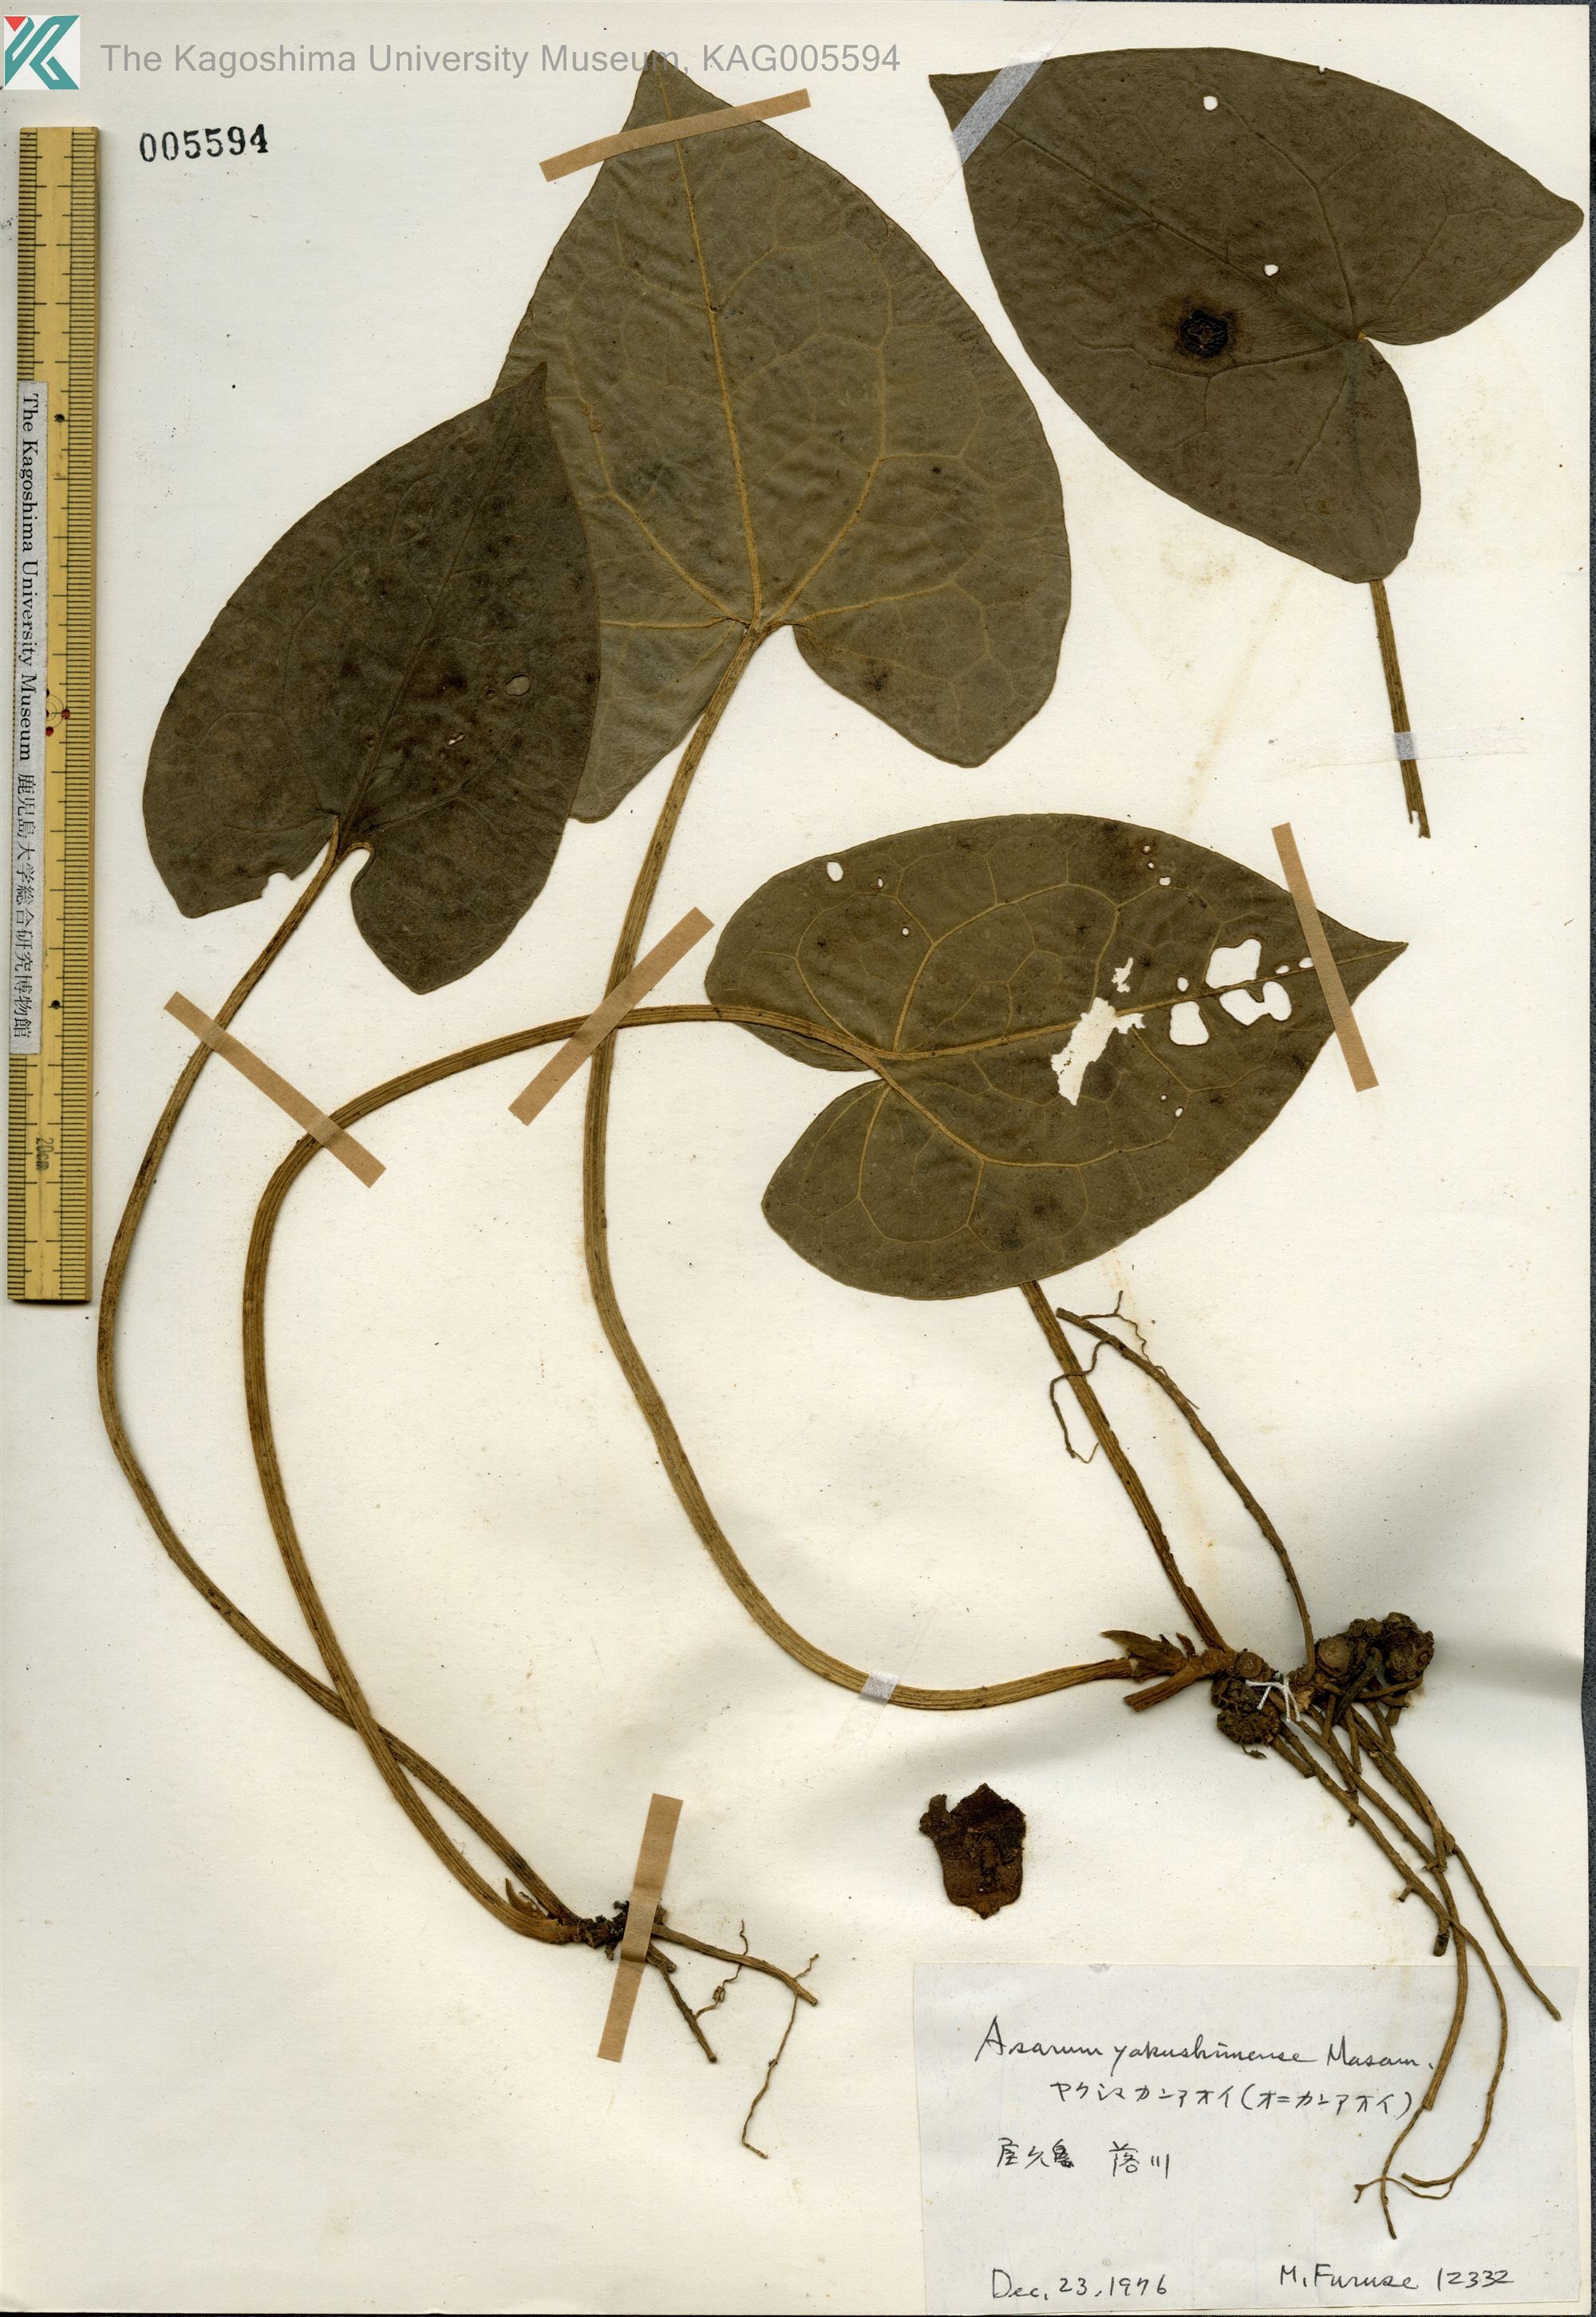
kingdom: Plantae
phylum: Tracheophyta
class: Magnoliopsida
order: Piperales
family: Aristolochiaceae
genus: Asarum
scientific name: Asarum kumageanum
